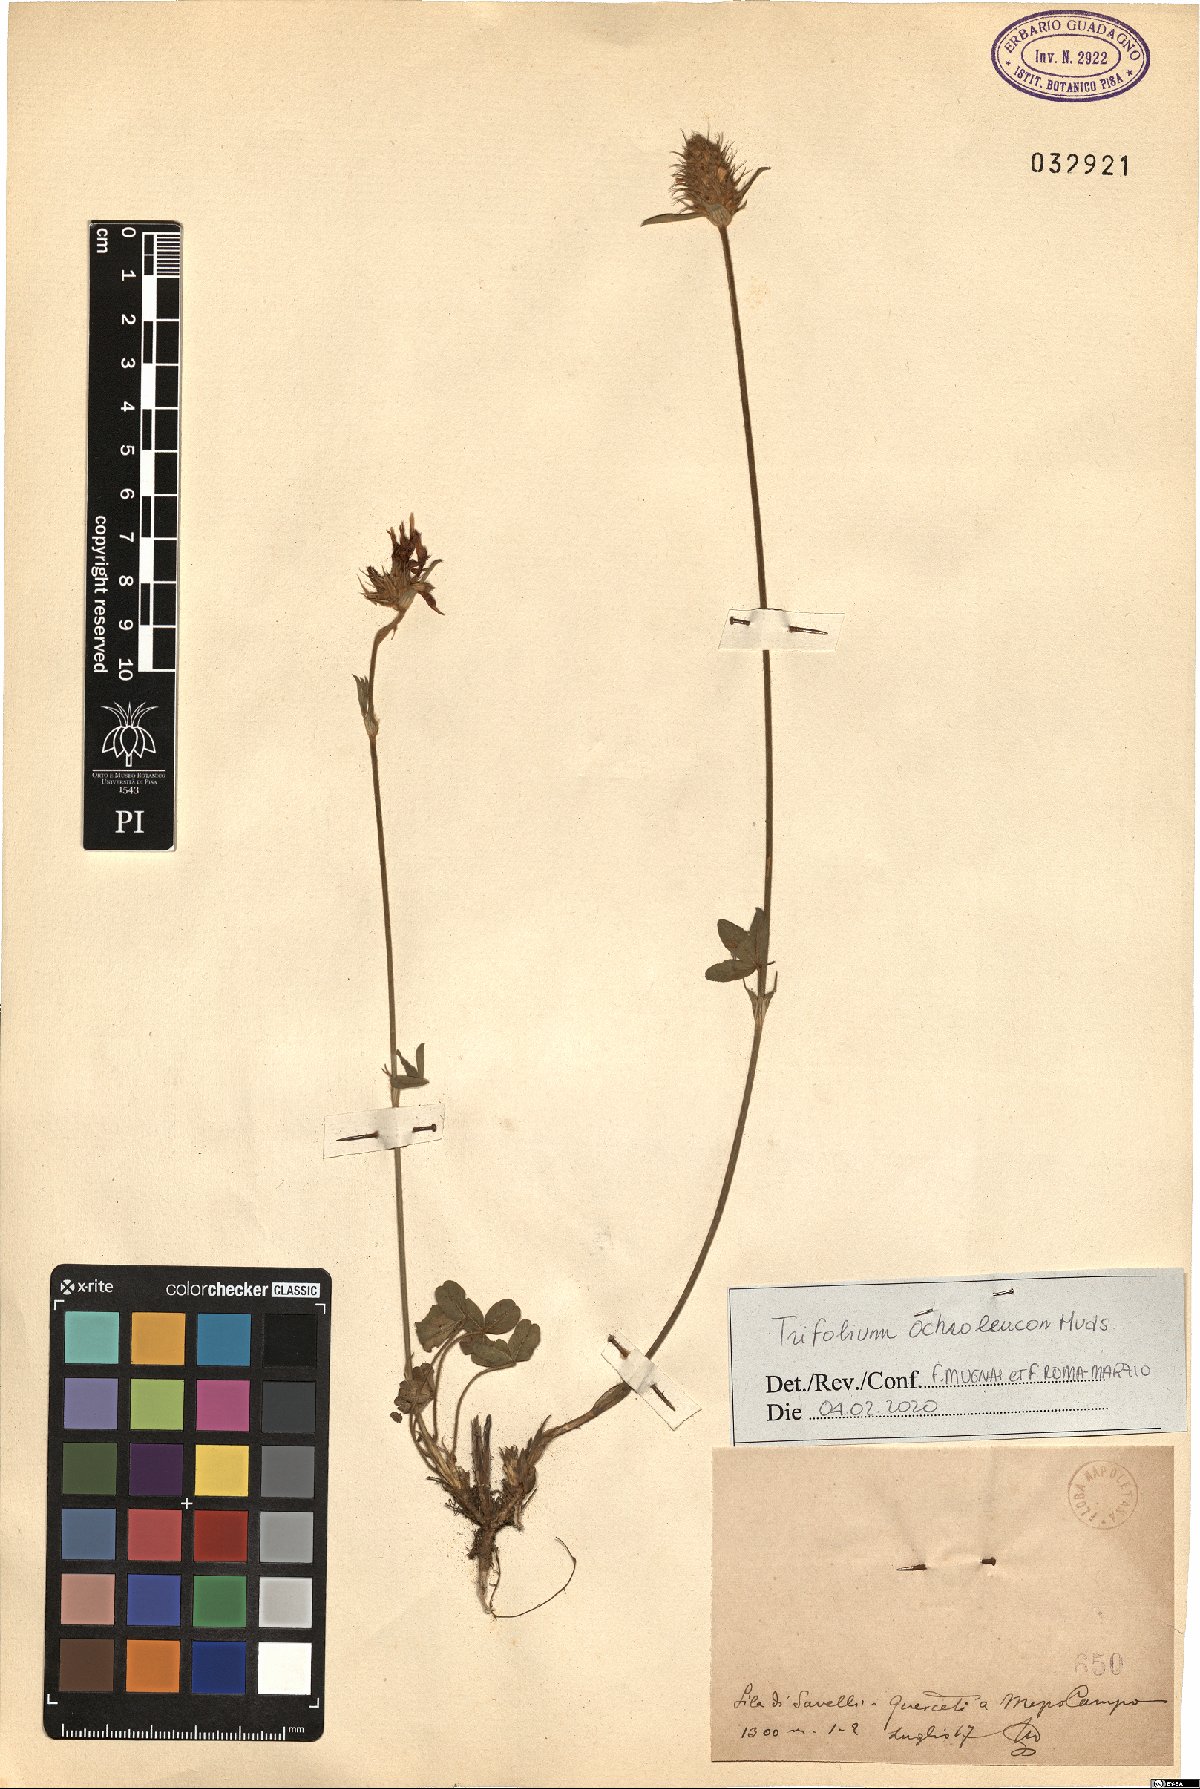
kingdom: Plantae
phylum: Tracheophyta
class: Magnoliopsida
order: Fabales
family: Fabaceae
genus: Trifolium
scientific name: Trifolium ochroleucon
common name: Sulphur clover
